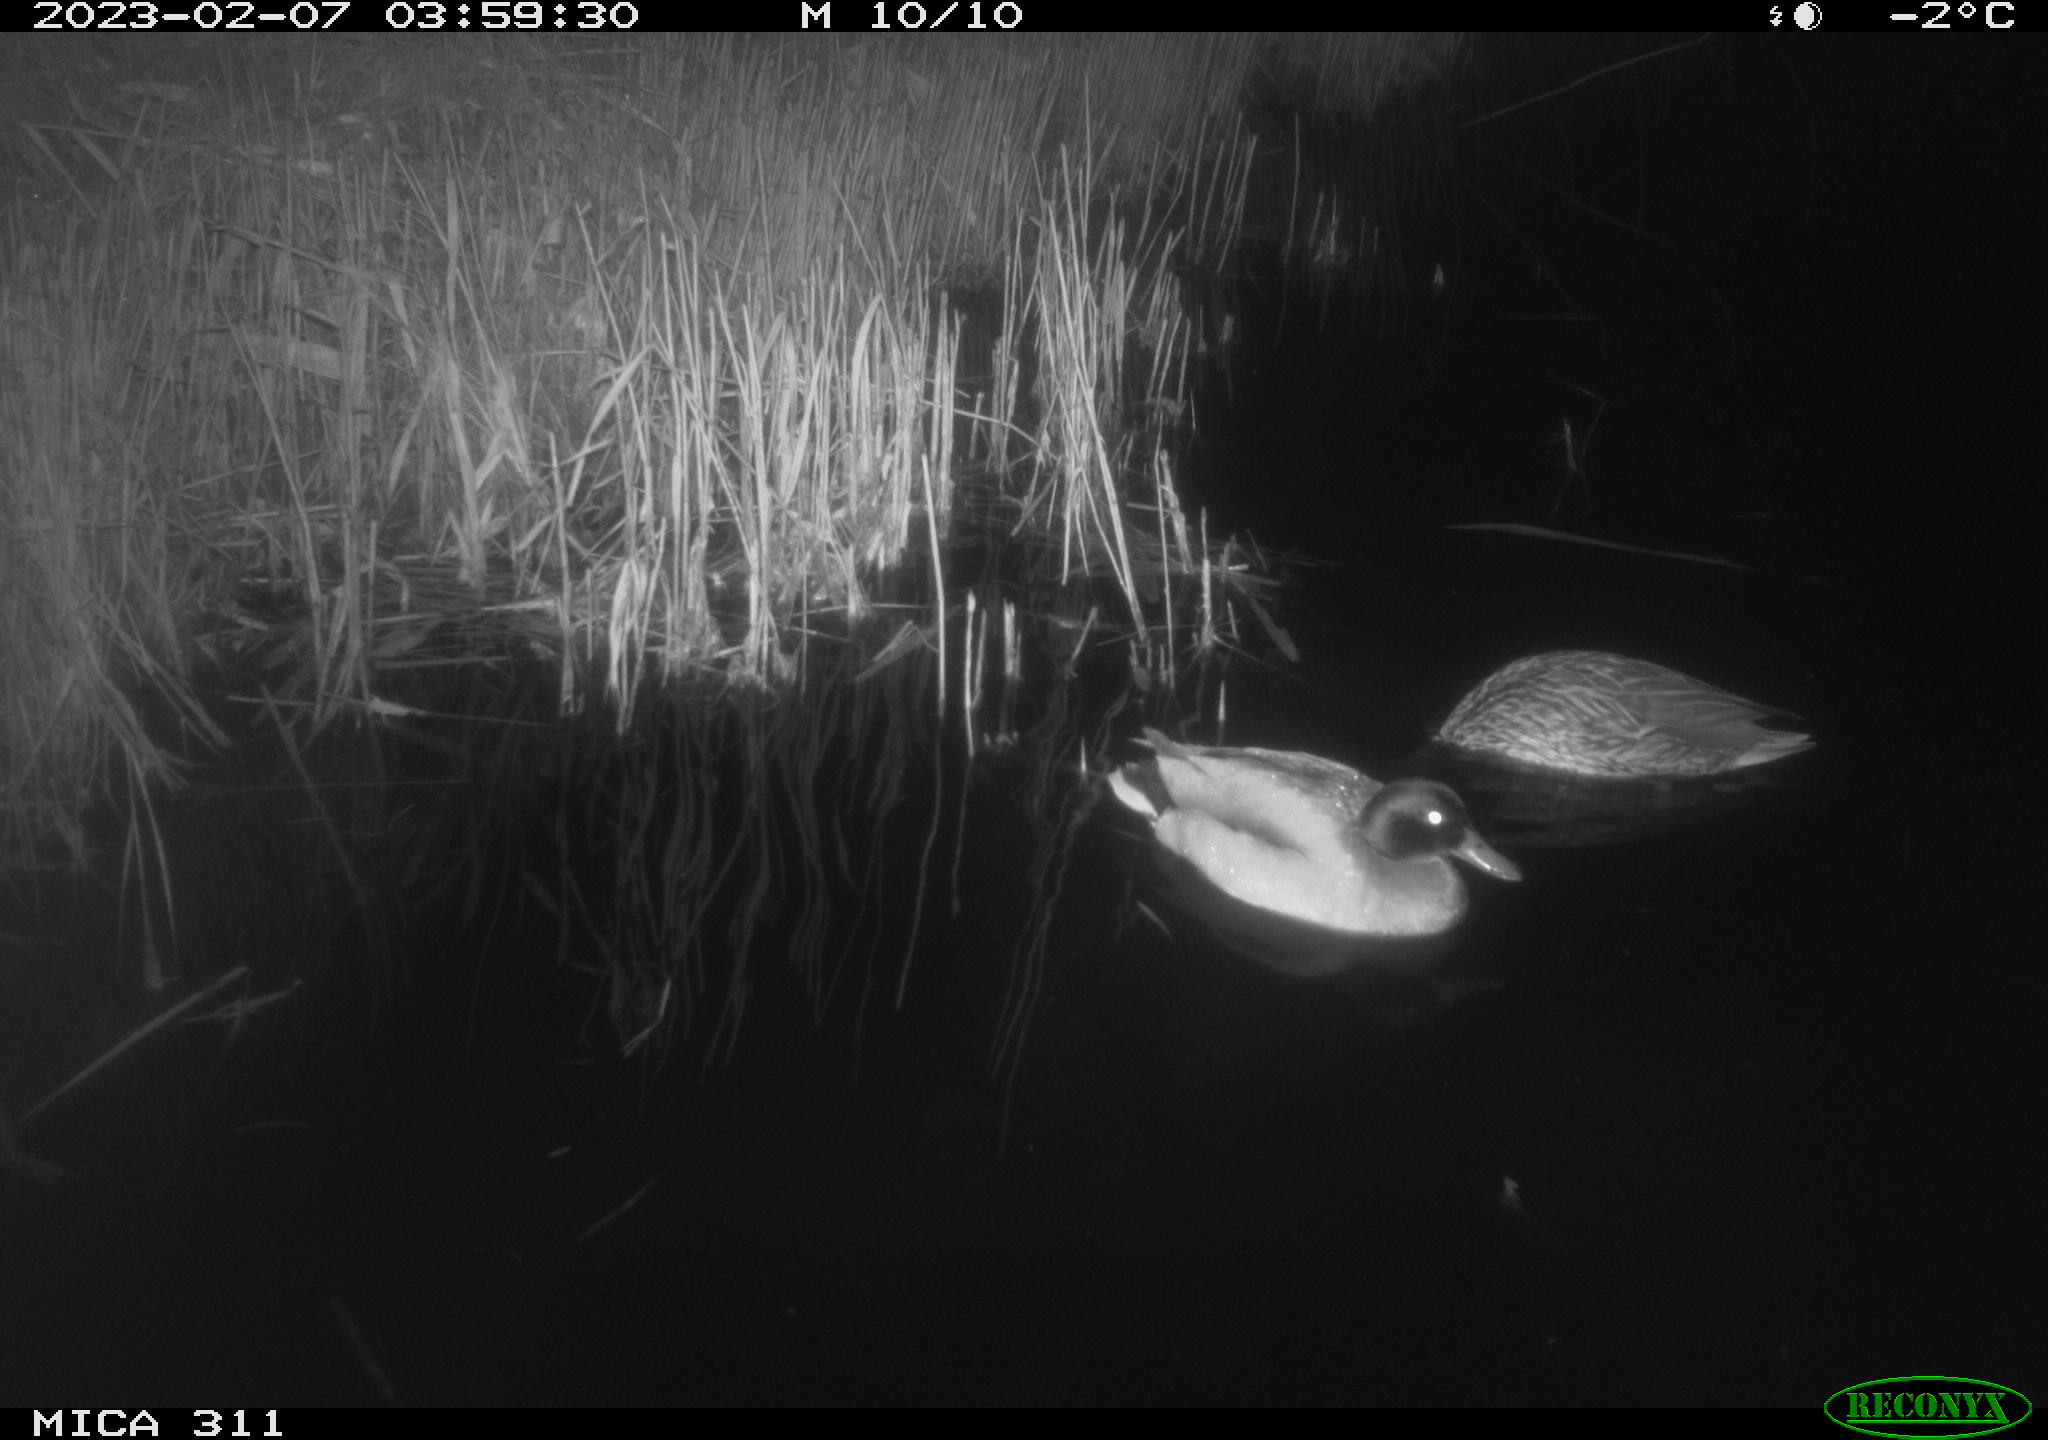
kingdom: Animalia
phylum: Chordata
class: Aves
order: Anseriformes
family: Anatidae
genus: Anas
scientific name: Anas platyrhynchos
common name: Mallard
